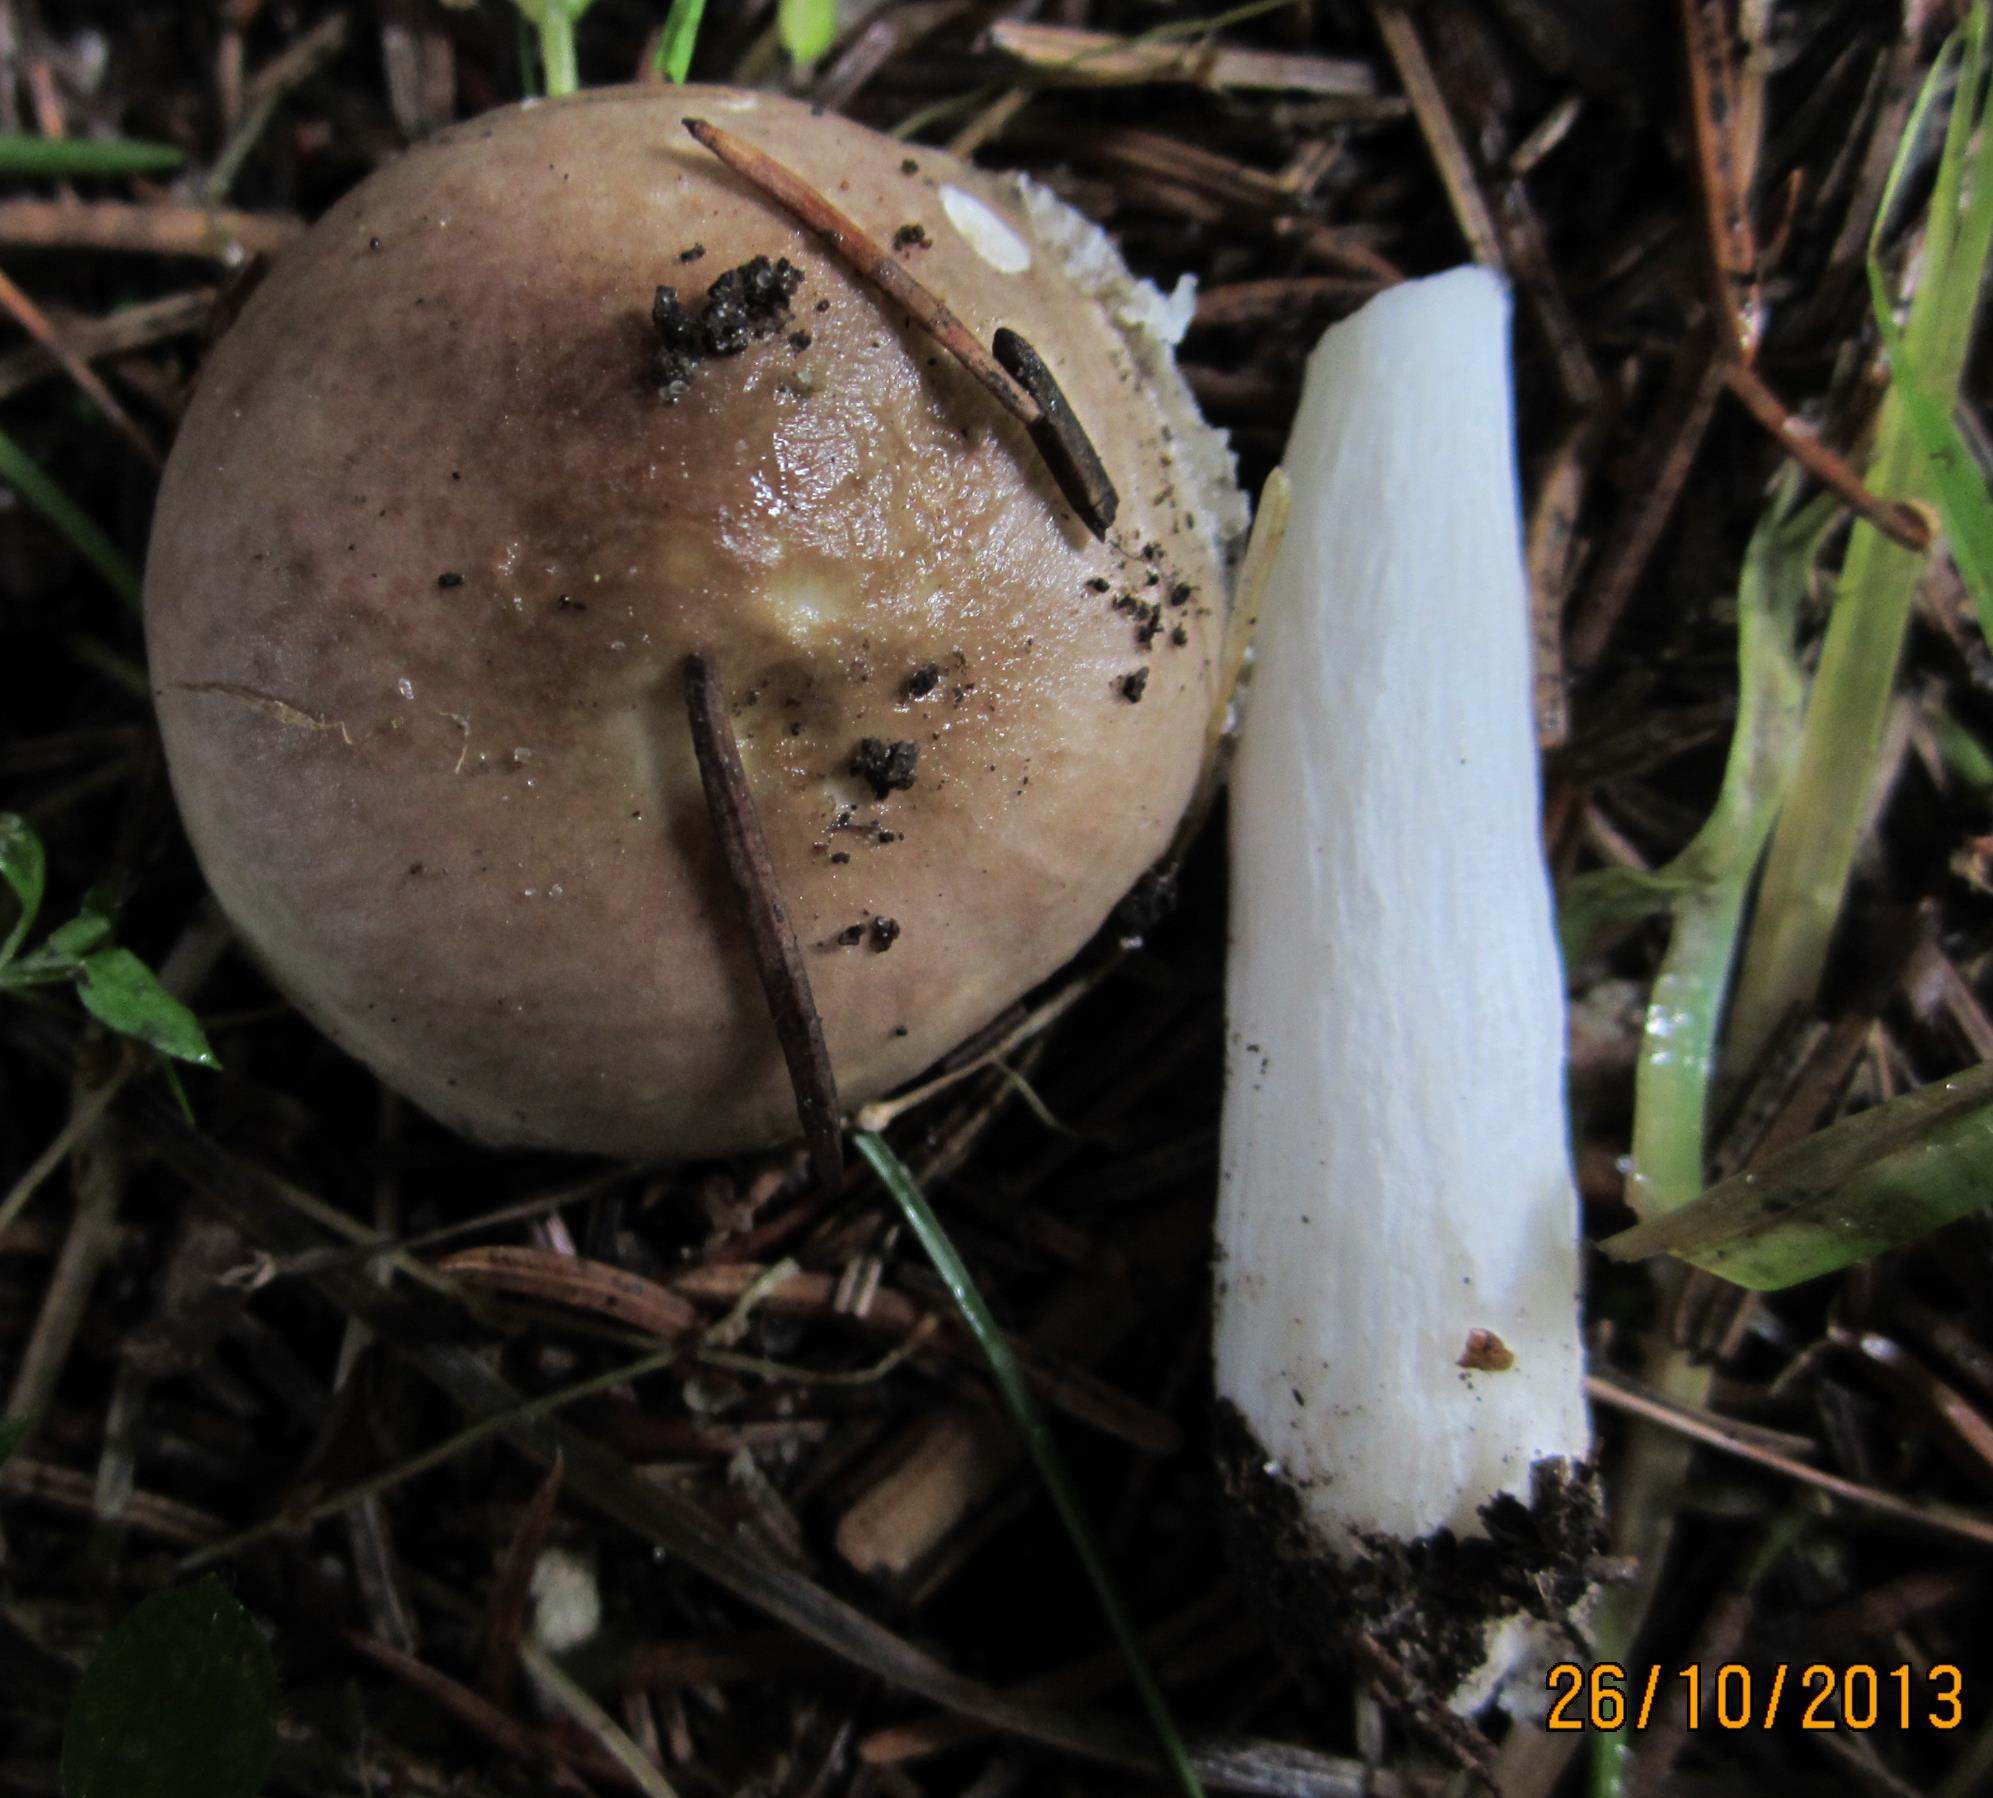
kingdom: Fungi
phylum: Basidiomycota
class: Agaricomycetes
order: Russulales
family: Russulaceae
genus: Russula
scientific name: Russula nauseosa
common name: spinkel skørhat
